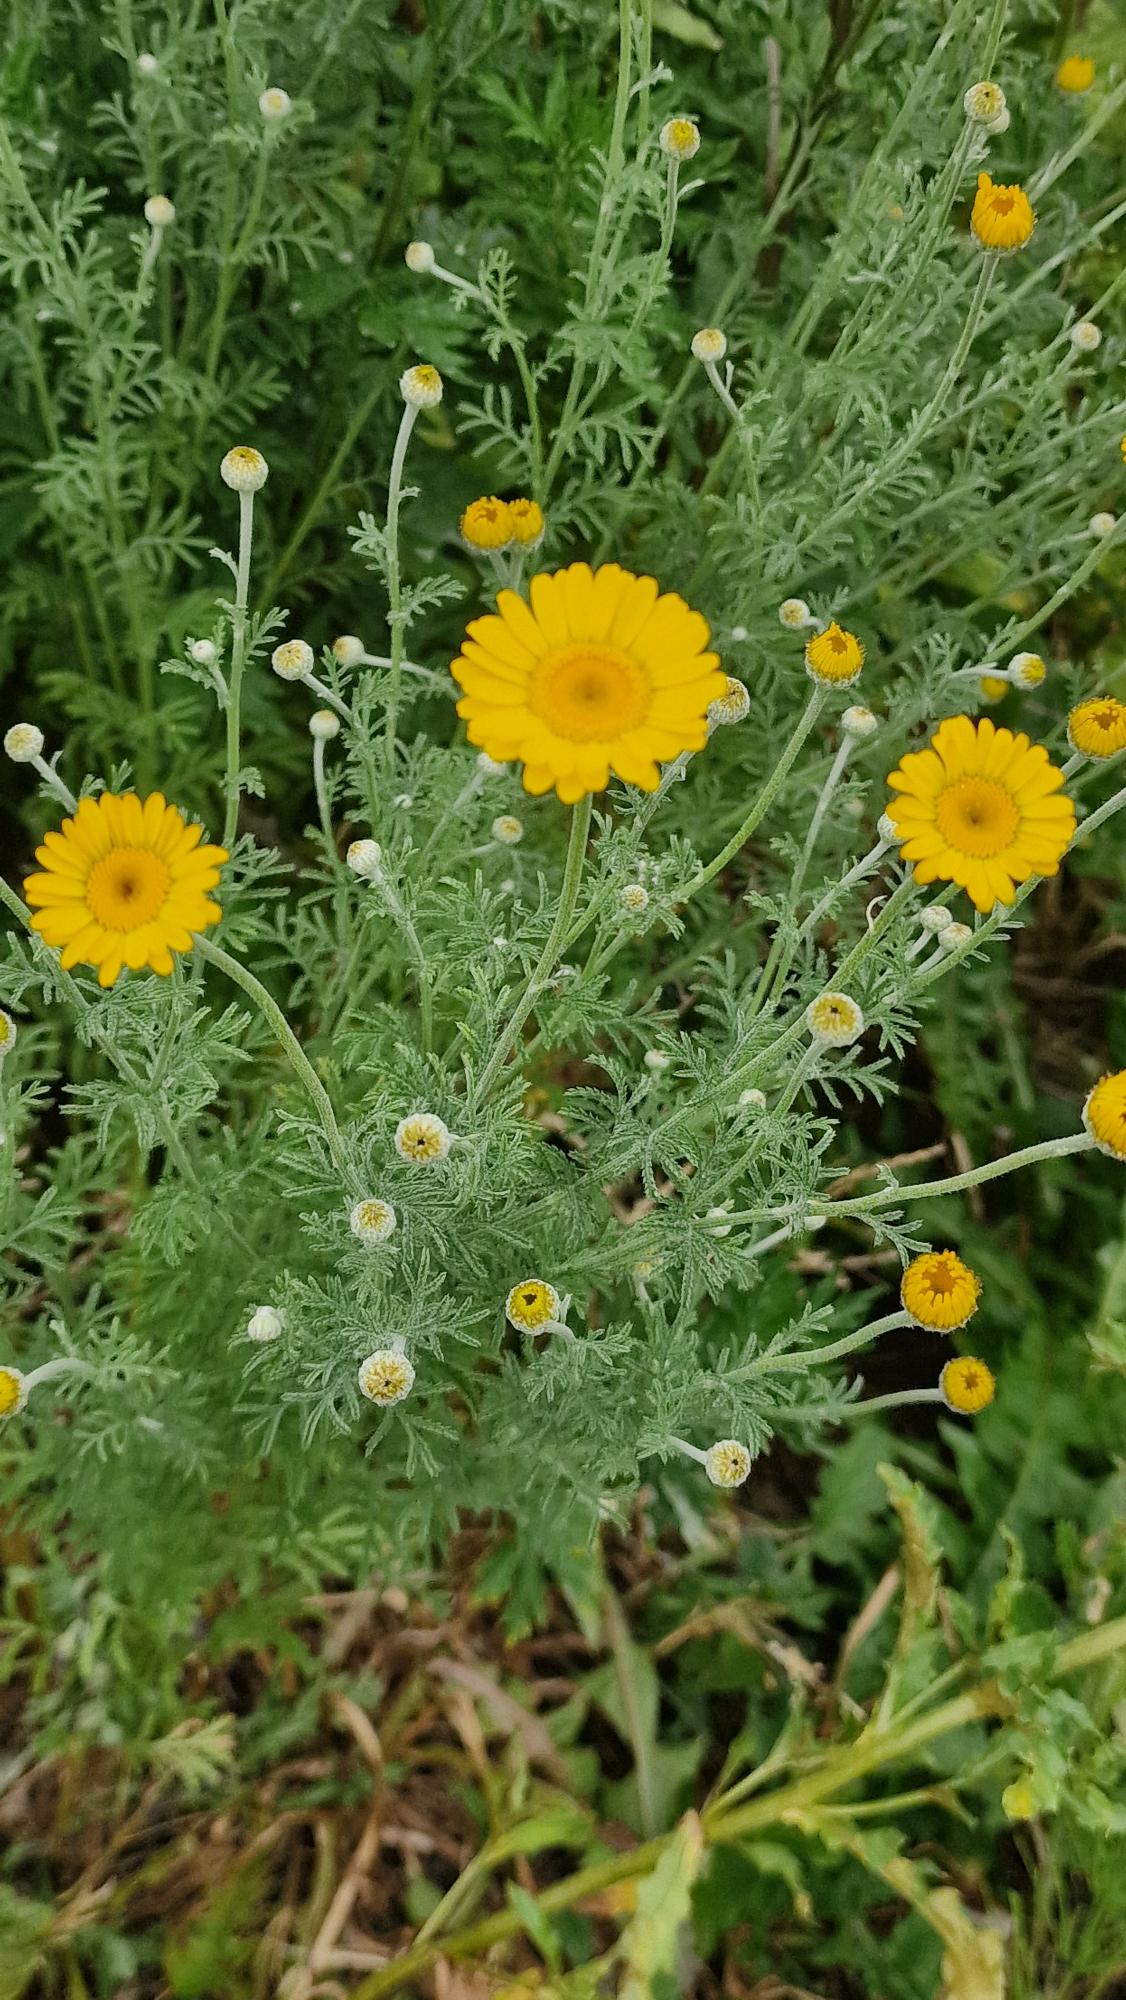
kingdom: Plantae
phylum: Tracheophyta
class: Magnoliopsida
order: Asterales
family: Asteraceae
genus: Cota
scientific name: Cota tinctoria
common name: Farve-gåseurt
